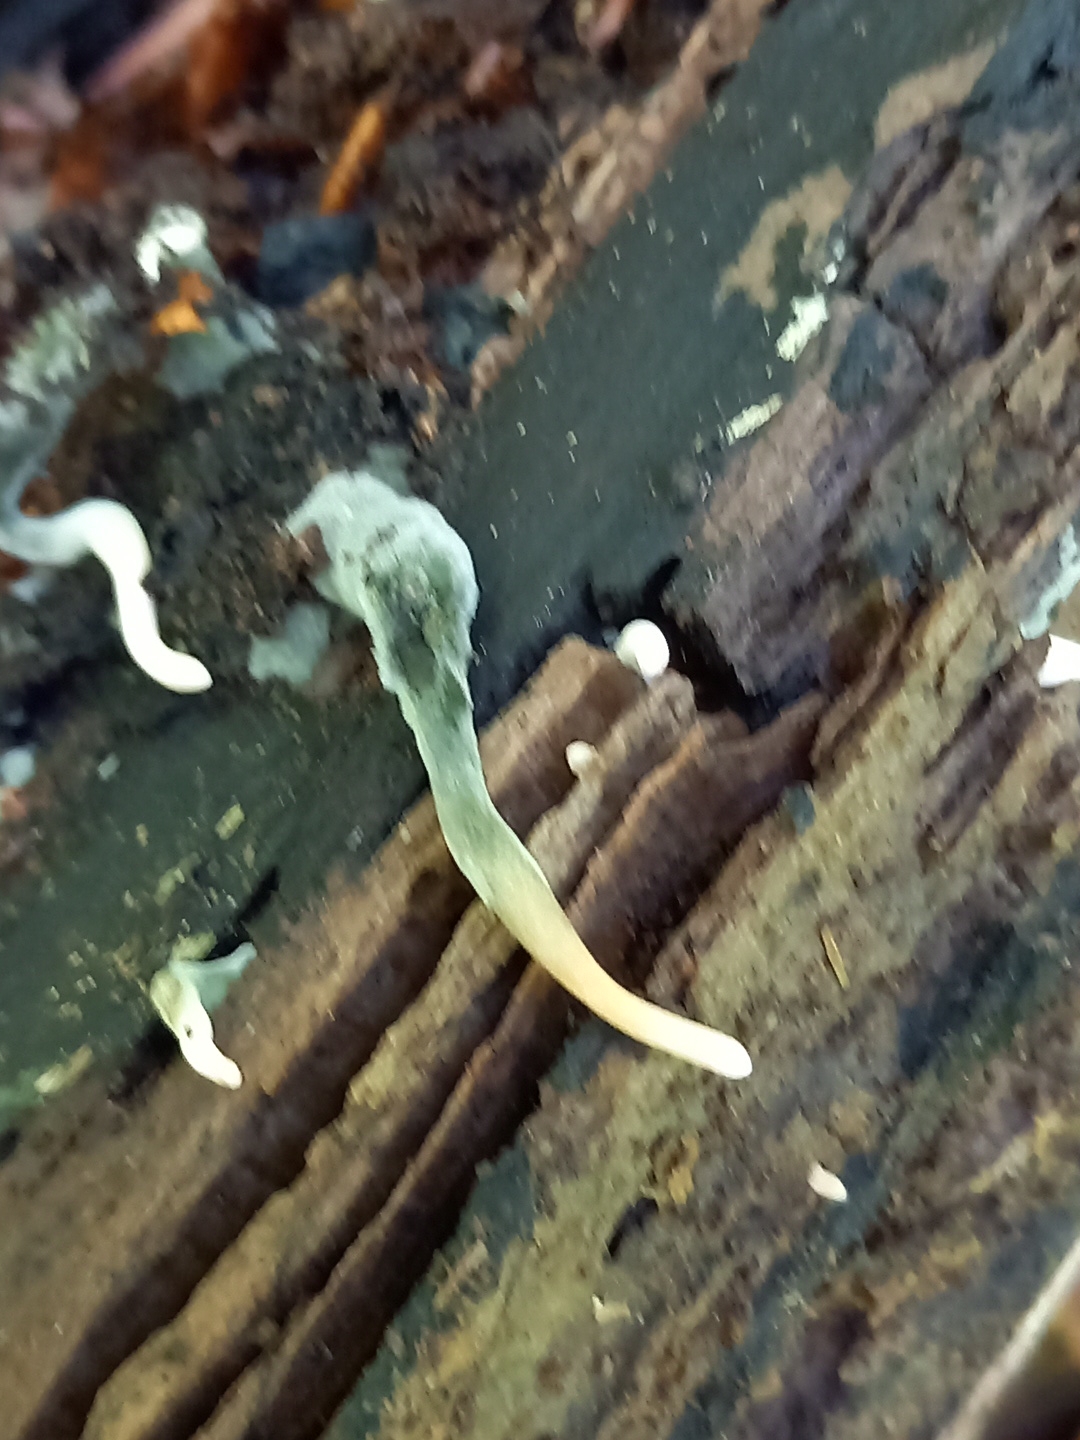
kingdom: Fungi
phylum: Ascomycota
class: Sordariomycetes
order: Xylariales
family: Xylariaceae
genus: Xylaria
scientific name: Xylaria longipes
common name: slank stødsvamp
